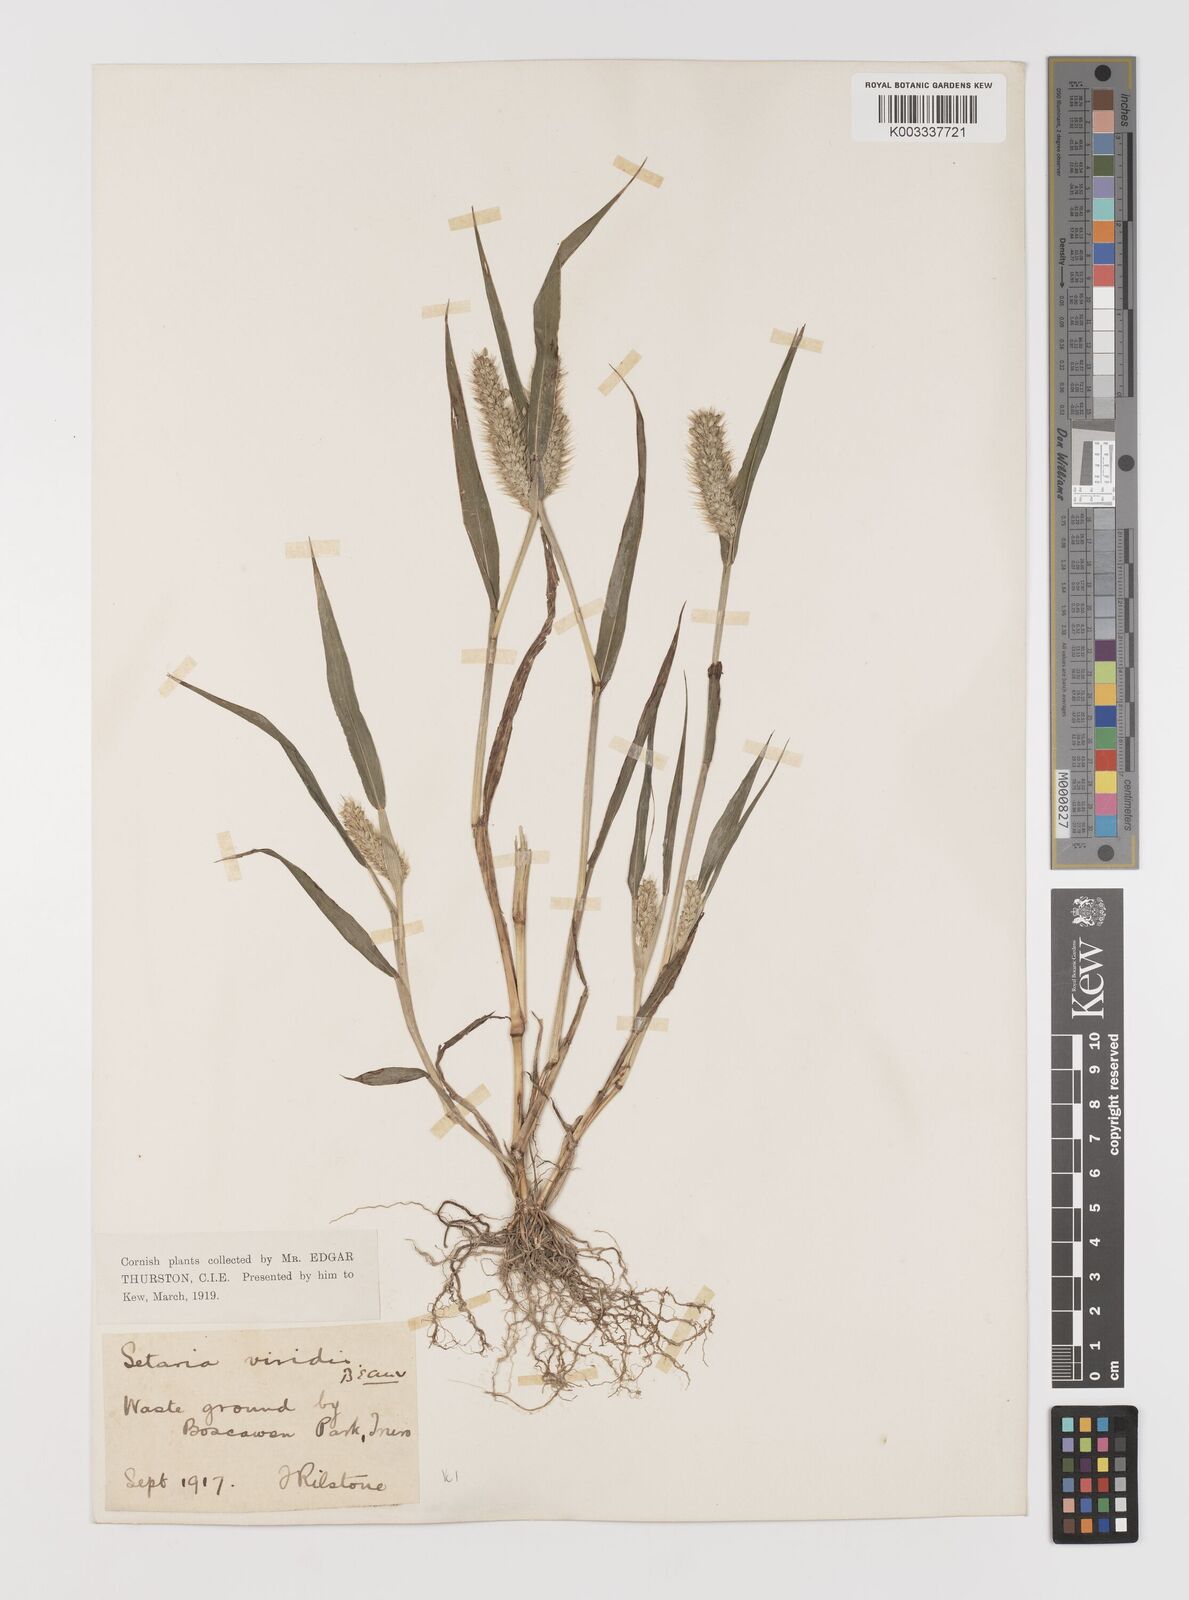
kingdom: Plantae
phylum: Tracheophyta
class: Liliopsida
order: Poales
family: Poaceae
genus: Setaria
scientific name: Setaria viridis
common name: Green bristlegrass
